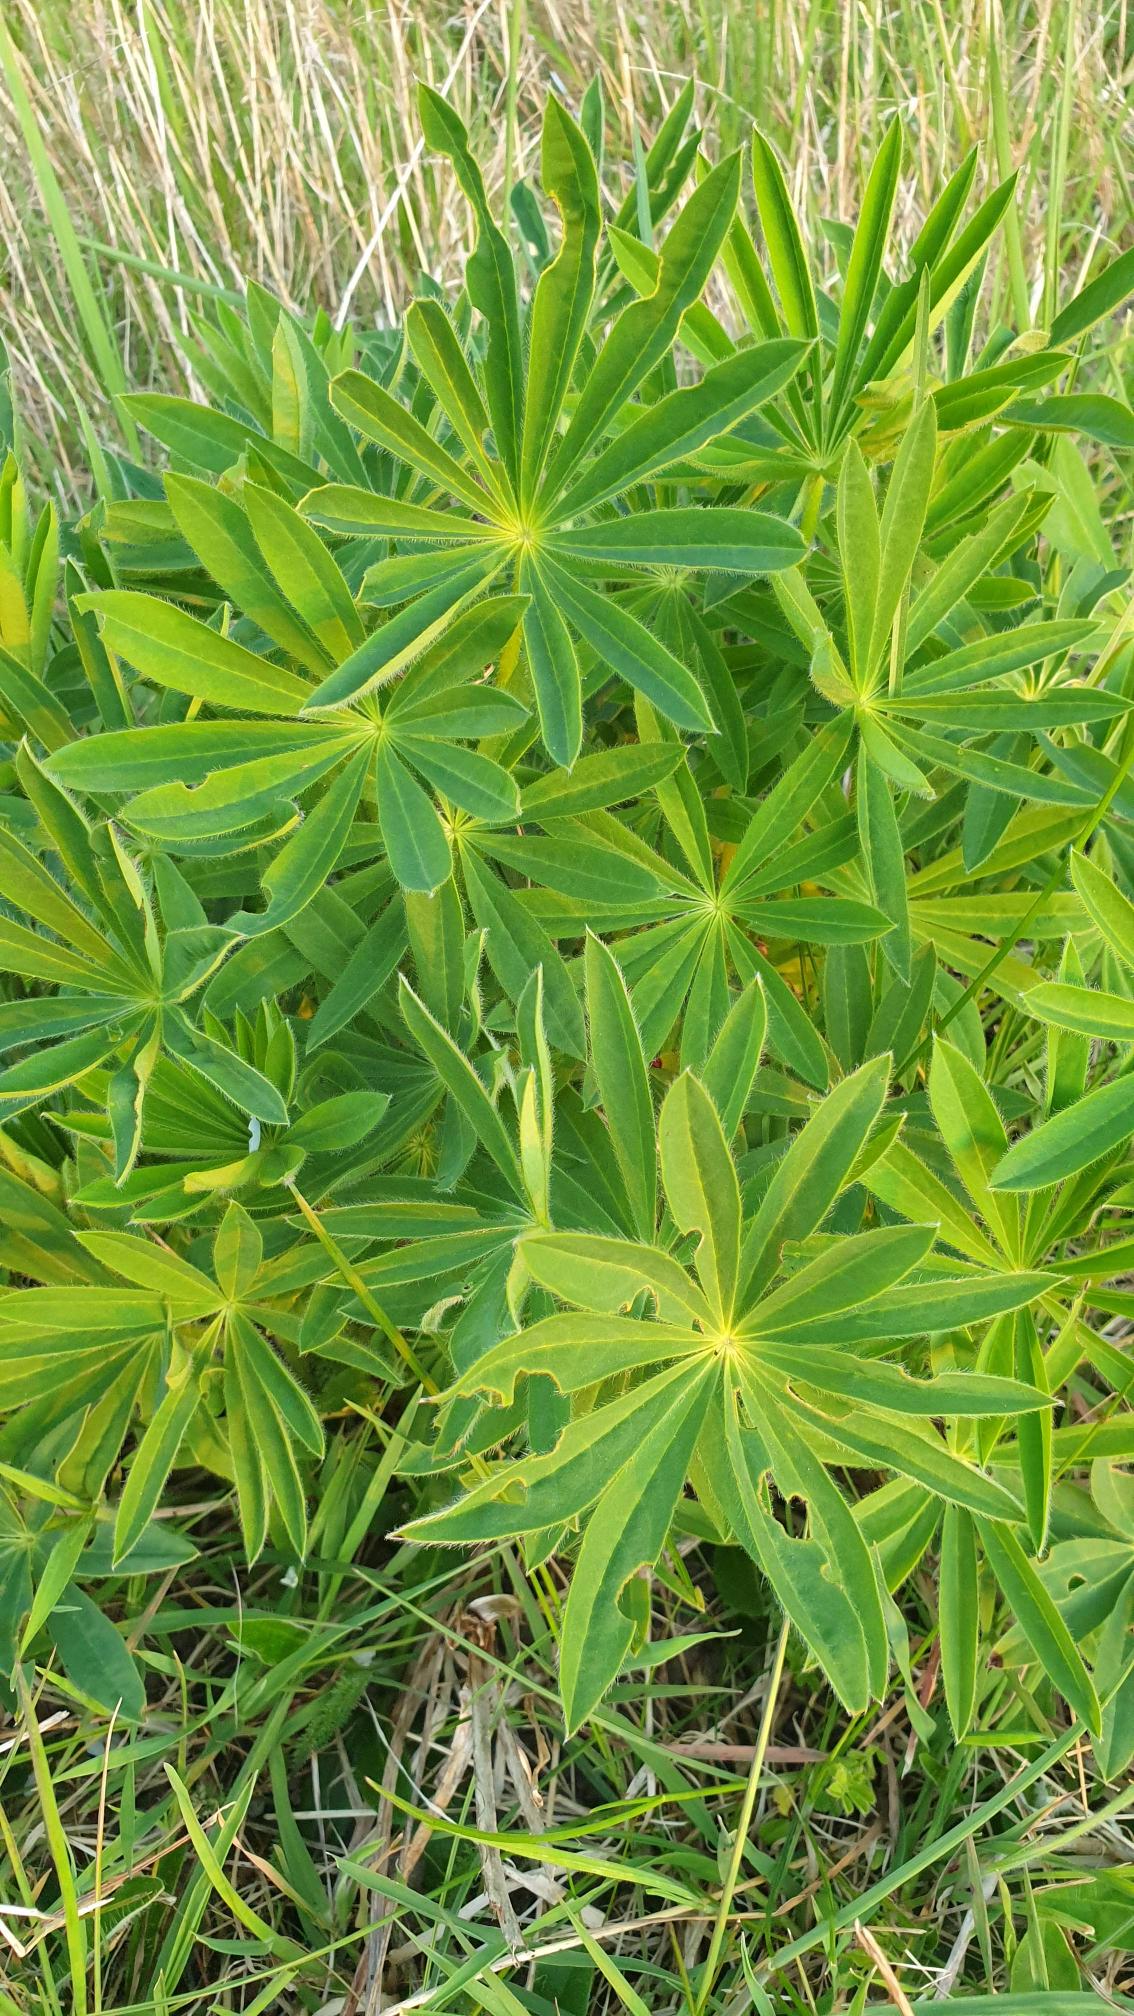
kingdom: Plantae
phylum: Tracheophyta
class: Magnoliopsida
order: Fabales
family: Fabaceae
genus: Lupinus
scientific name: Lupinus polyphyllus
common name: Mangebladet lupin
